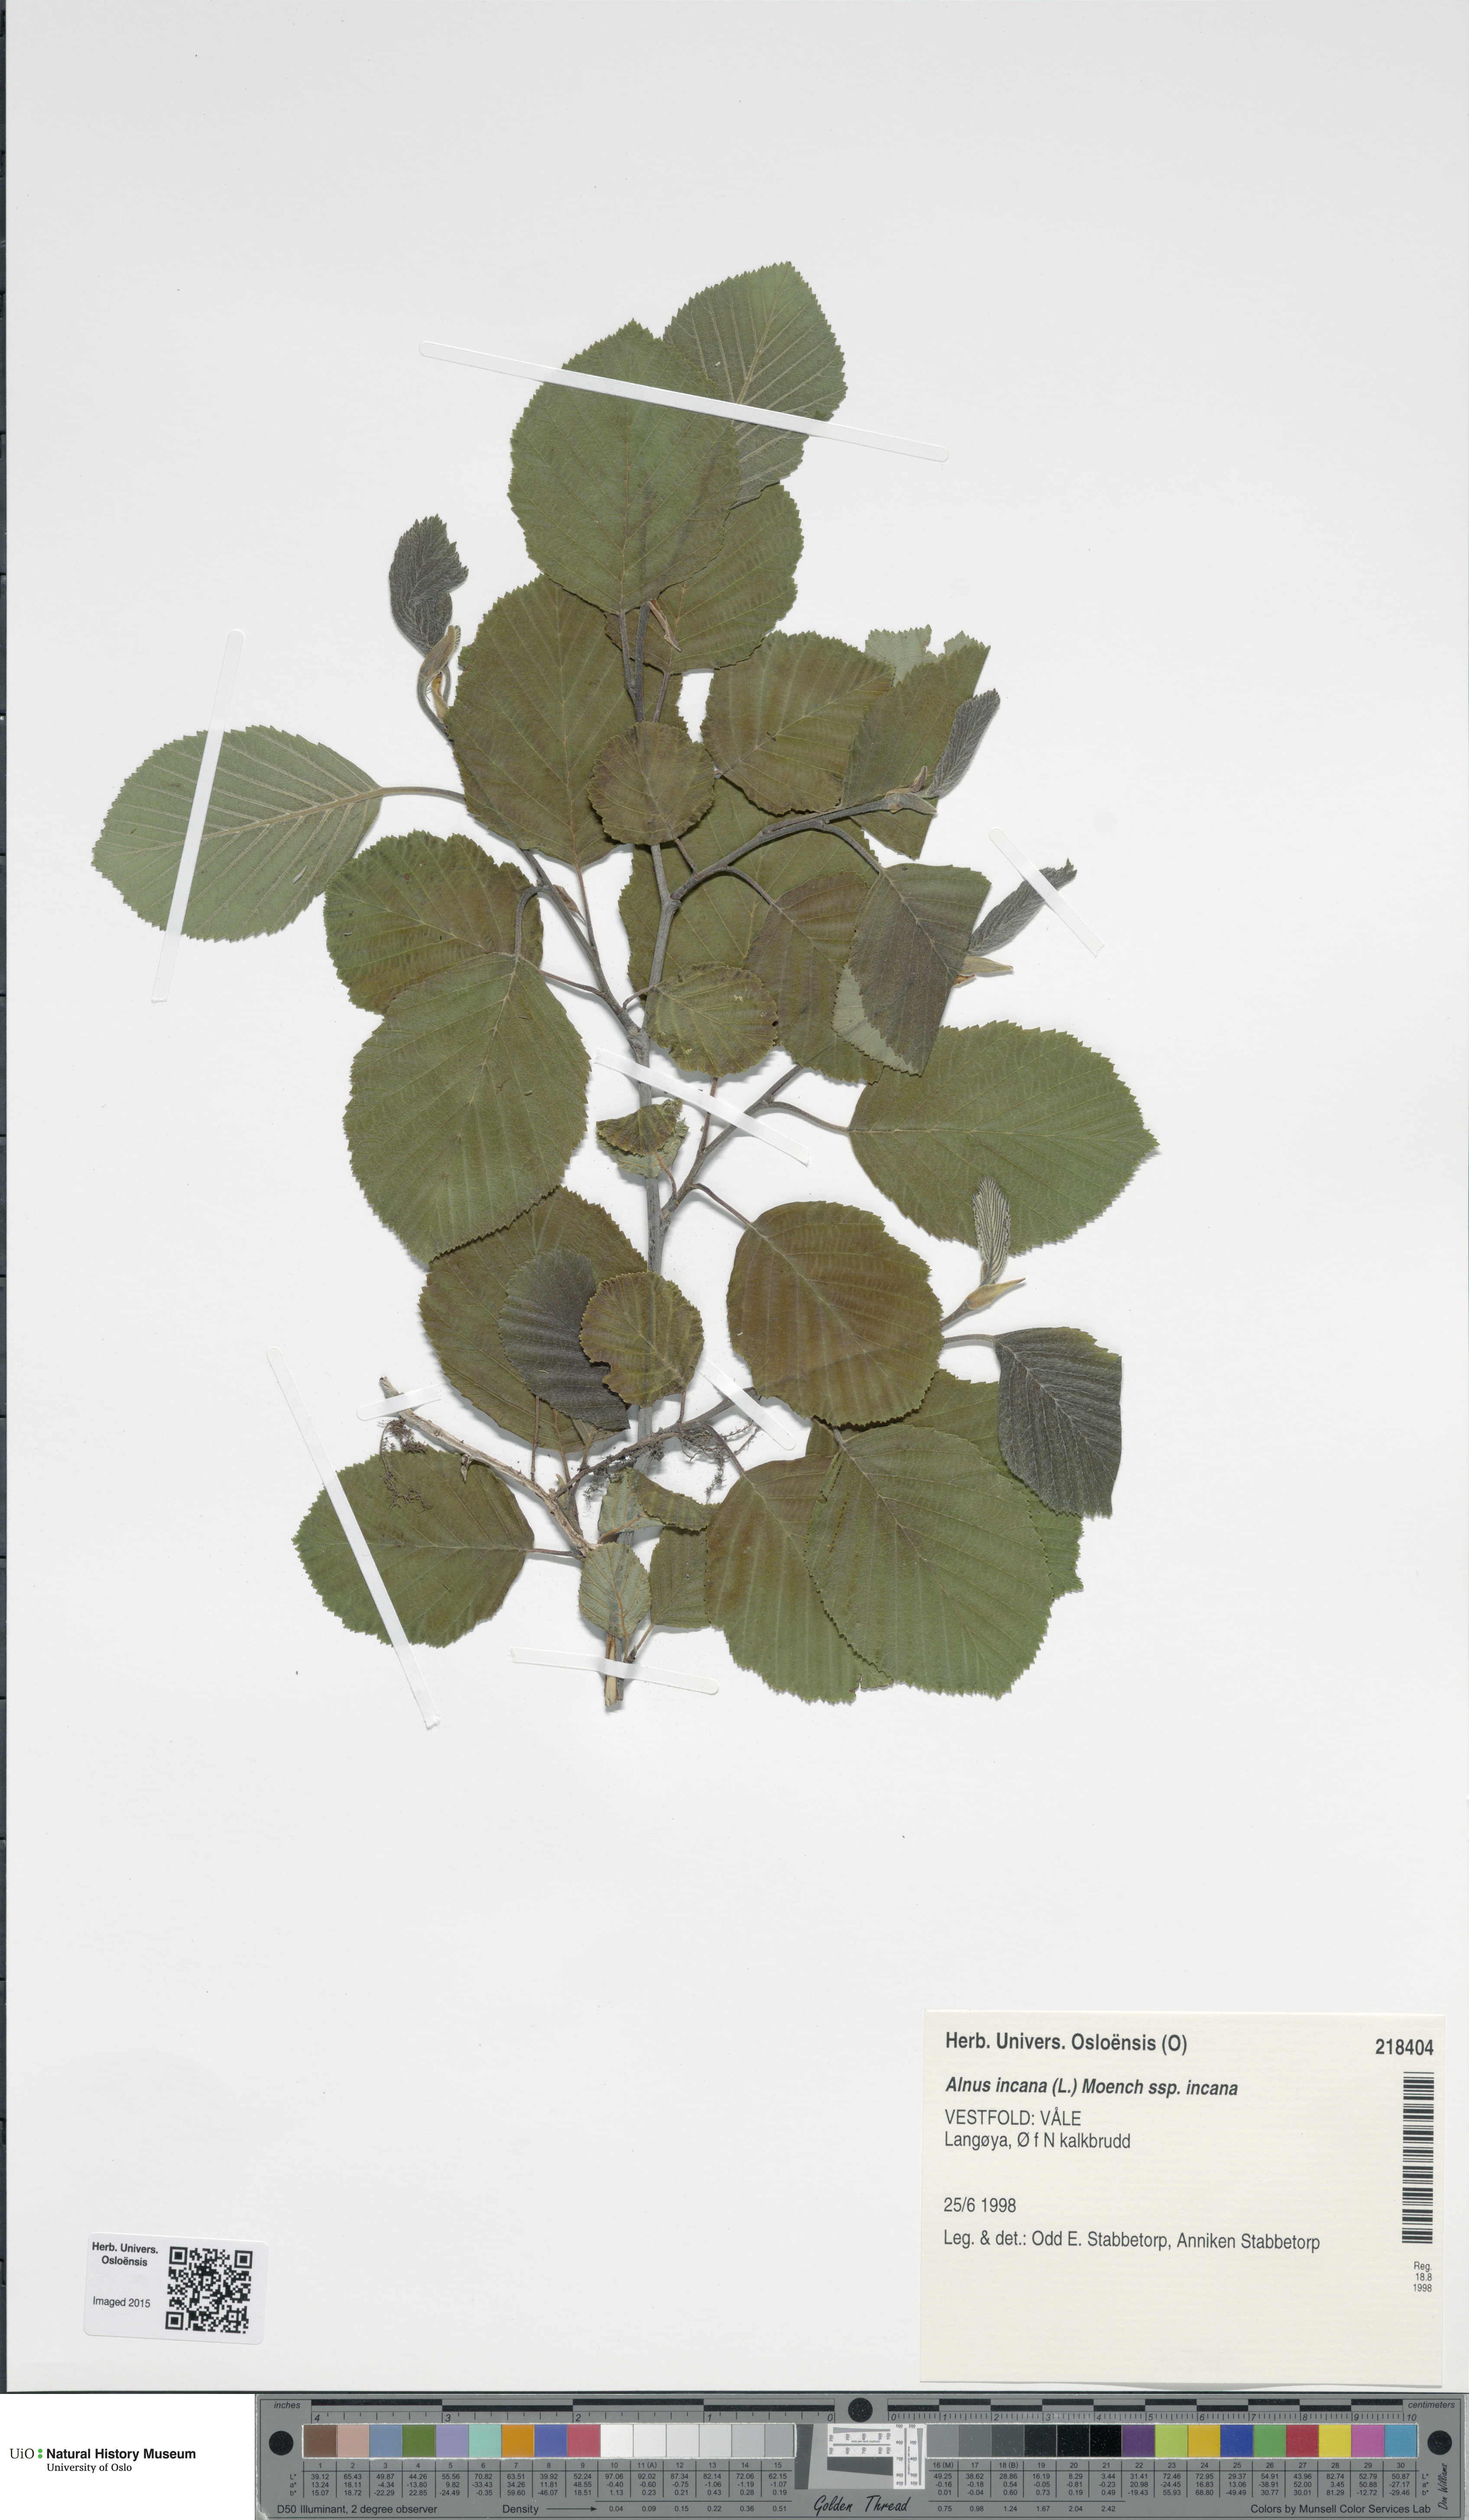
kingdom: Plantae
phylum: Tracheophyta
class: Magnoliopsida
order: Fagales
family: Betulaceae
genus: Alnus
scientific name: Alnus incana
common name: Grey alder
